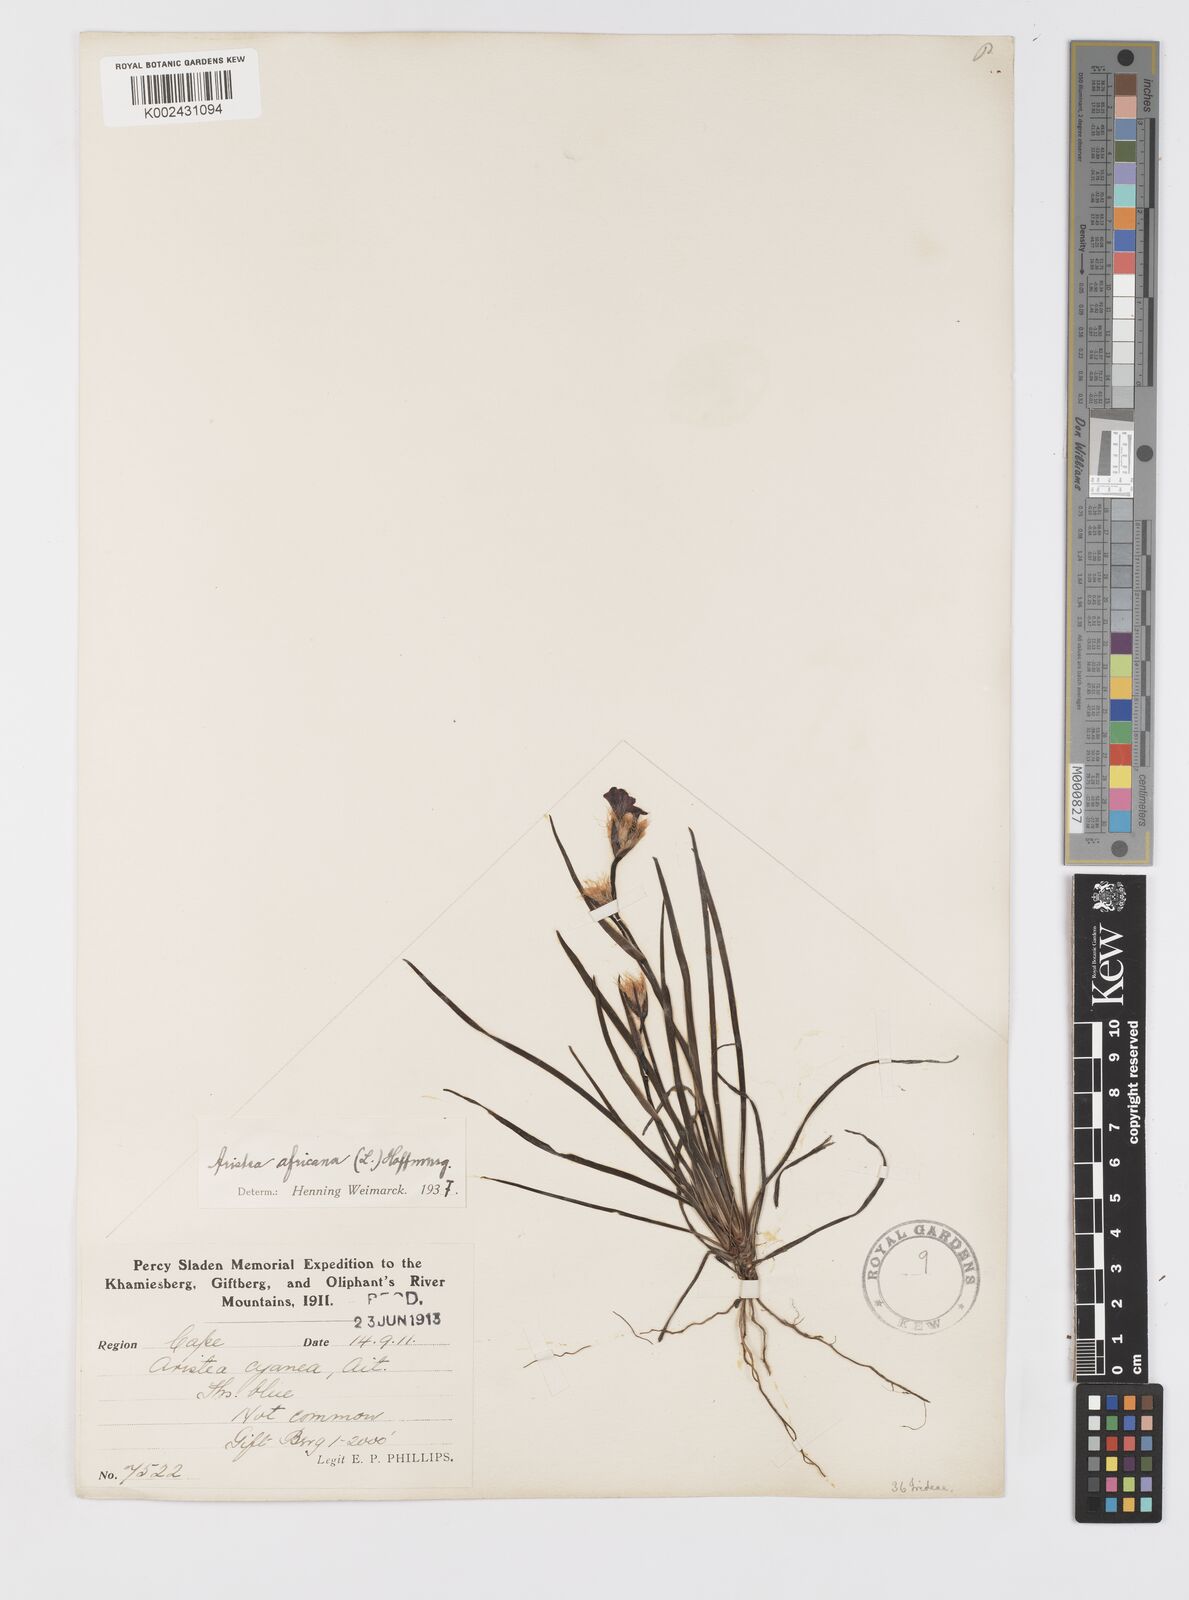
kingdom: Plantae
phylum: Tracheophyta
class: Liliopsida
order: Asparagales
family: Iridaceae
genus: Aristea
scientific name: Aristea africana
